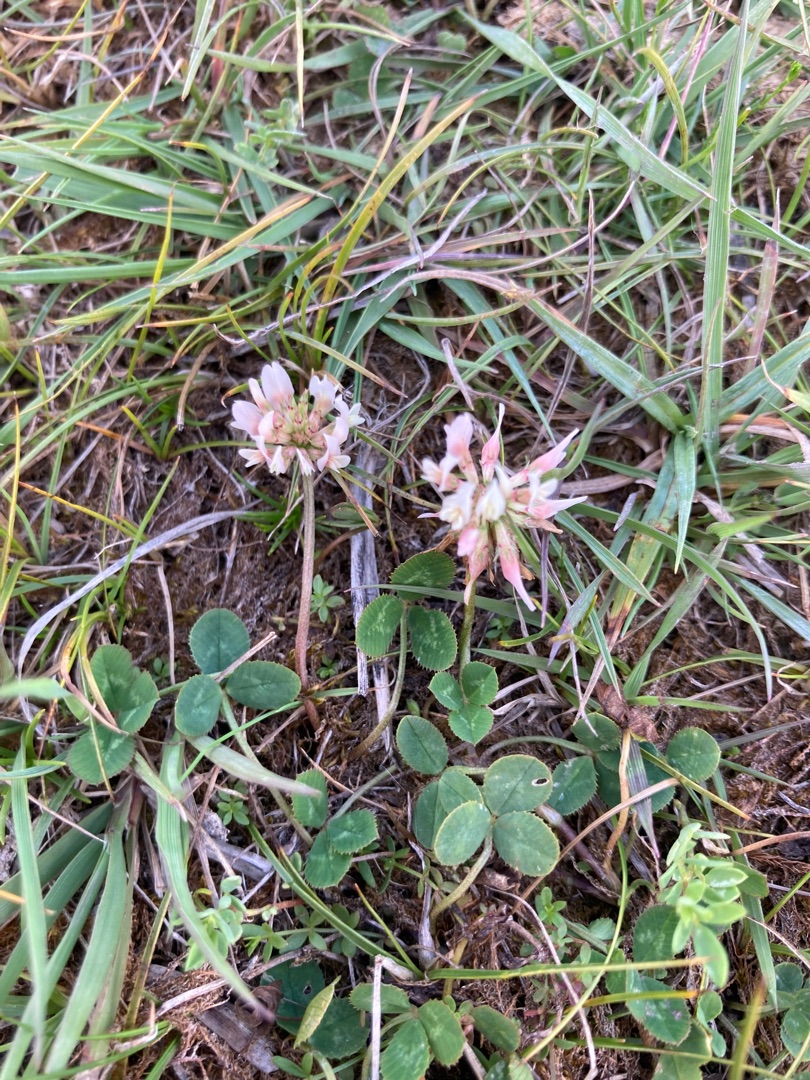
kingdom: Plantae
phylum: Tracheophyta
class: Magnoliopsida
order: Fabales
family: Fabaceae
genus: Trifolium
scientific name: Trifolium repens
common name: Hvid-kløver
